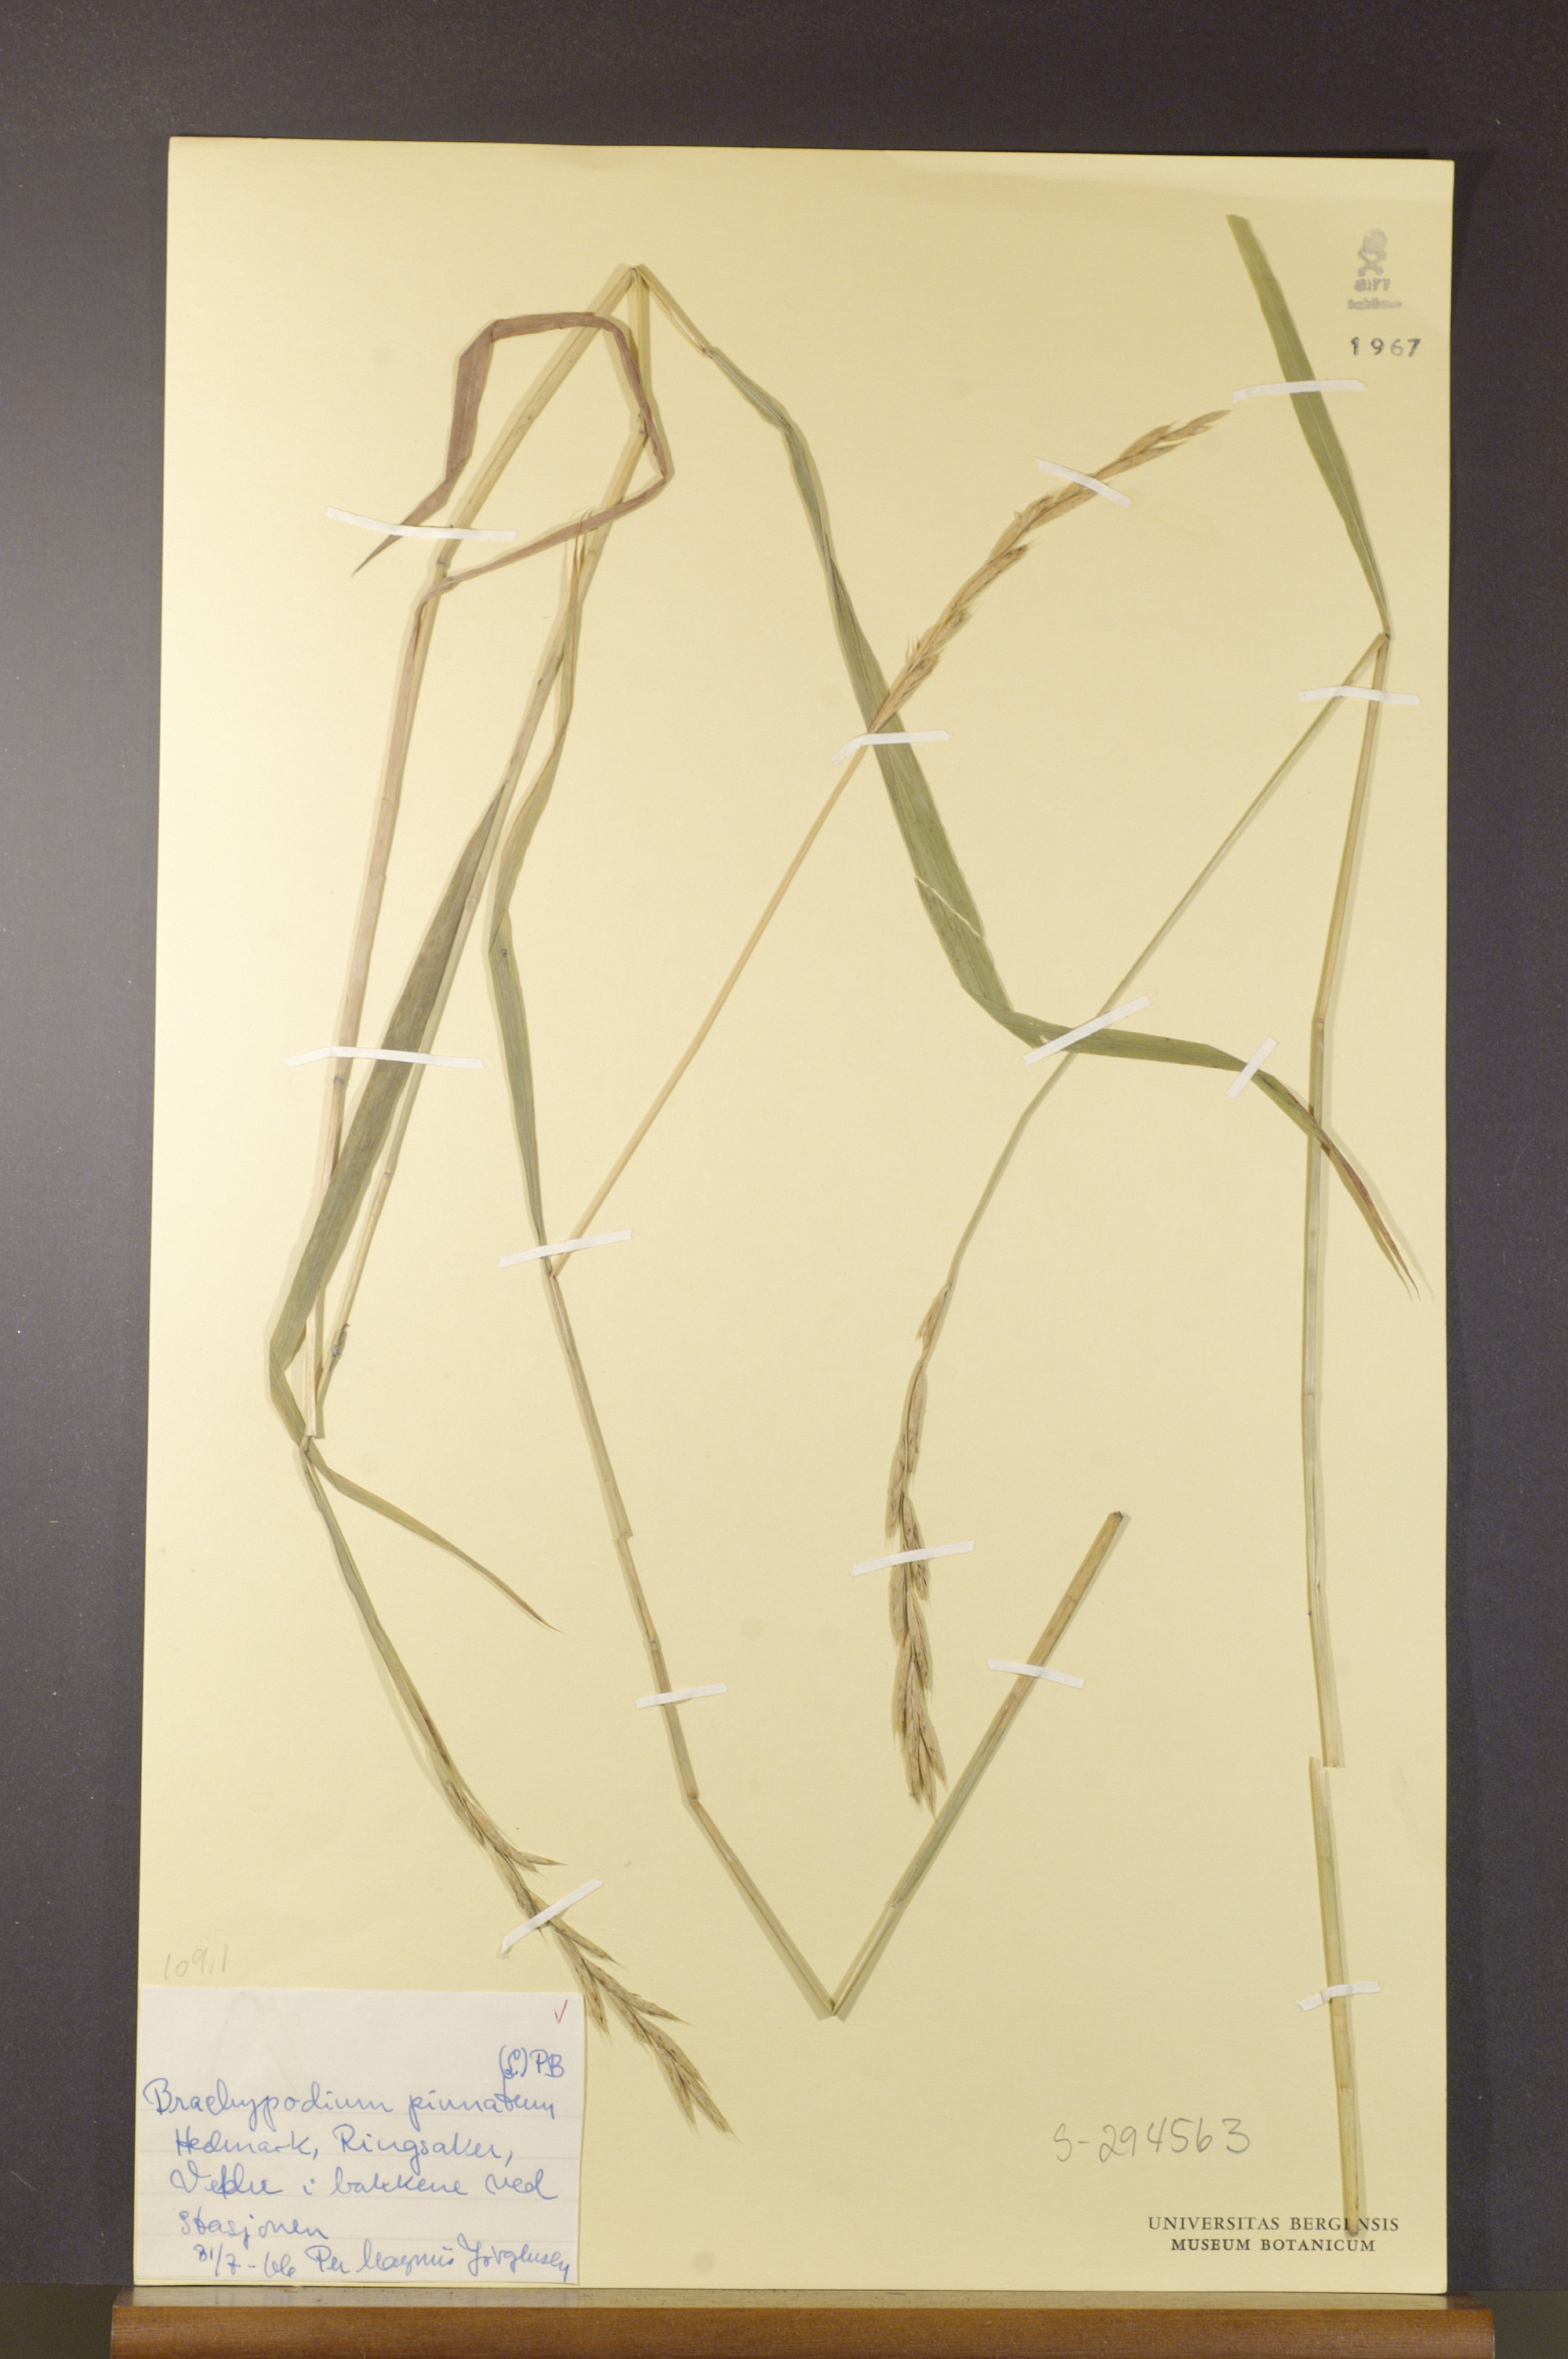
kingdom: Plantae
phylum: Tracheophyta
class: Liliopsida
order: Poales
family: Poaceae
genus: Brachypodium
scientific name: Brachypodium pinnatum
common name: Tor grass
